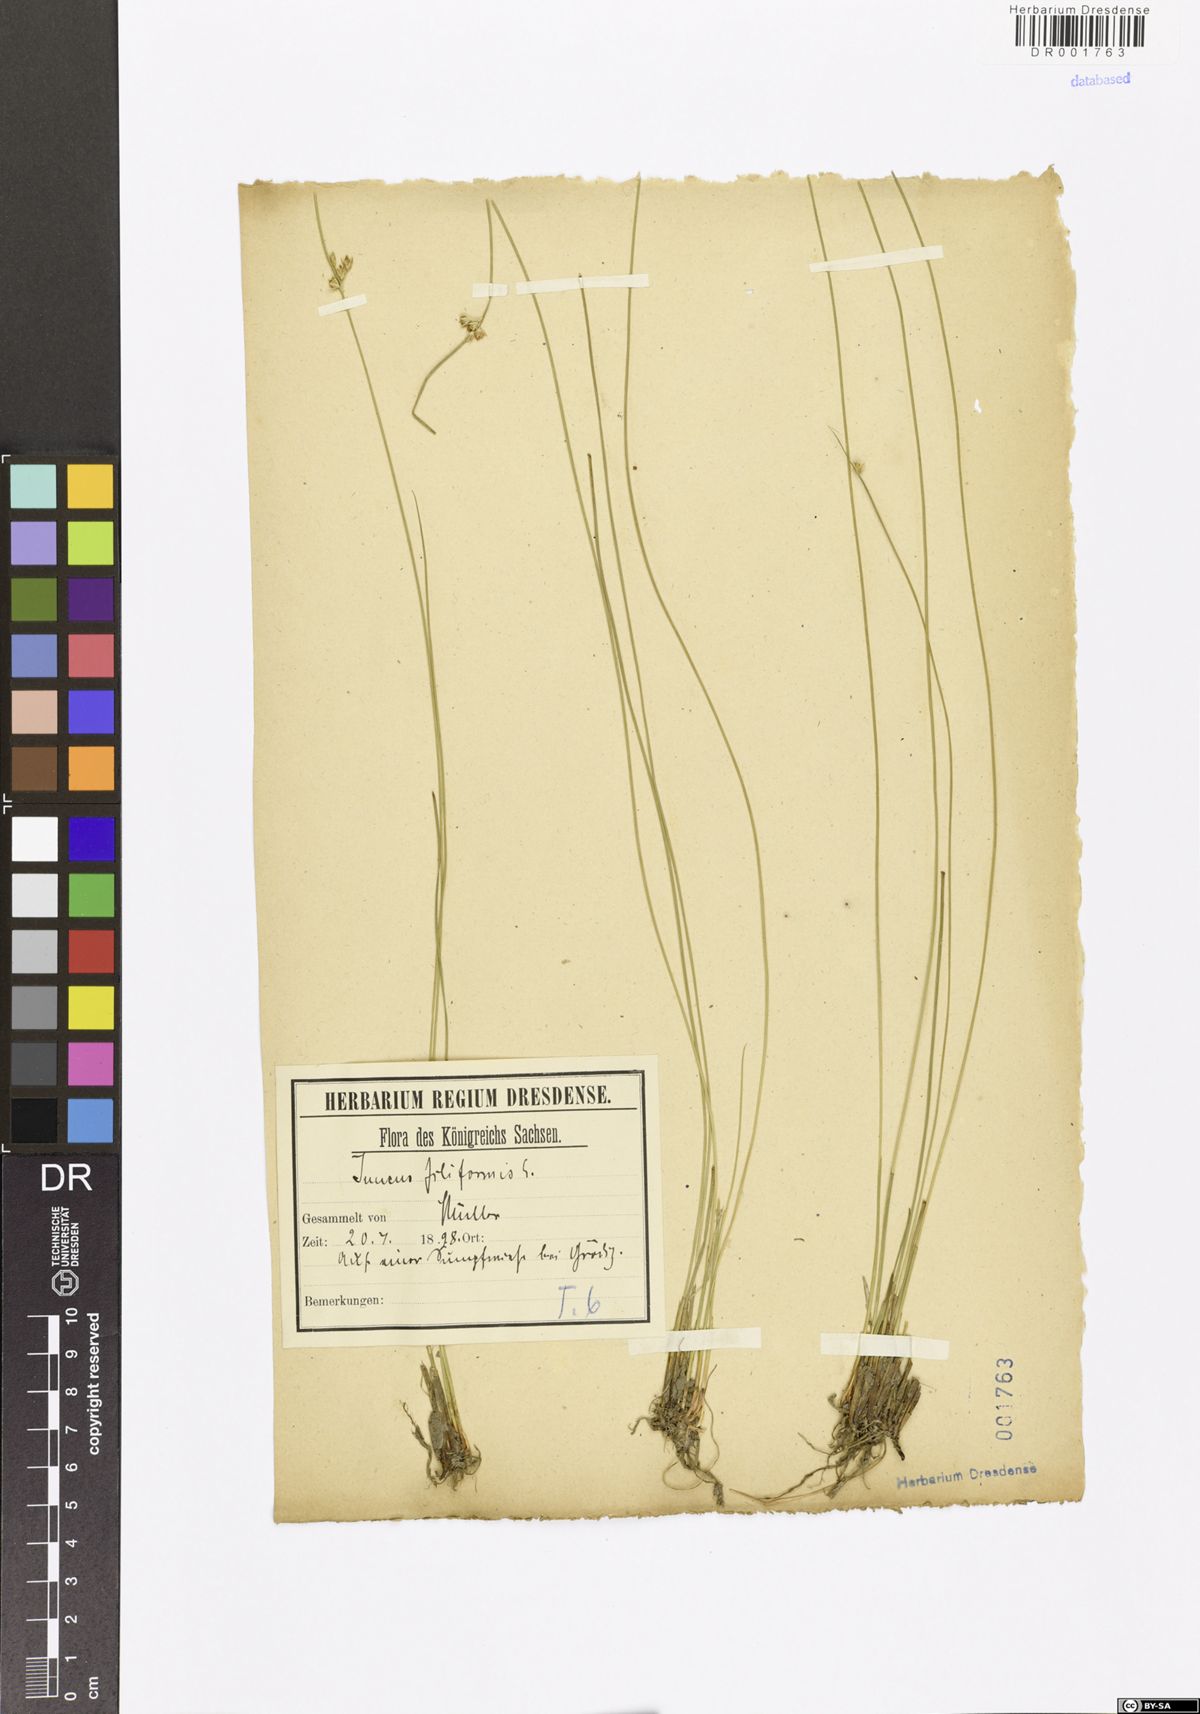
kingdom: Plantae
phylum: Tracheophyta
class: Liliopsida
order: Poales
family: Juncaceae
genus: Juncus
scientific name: Juncus filiformis
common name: Thread rush
